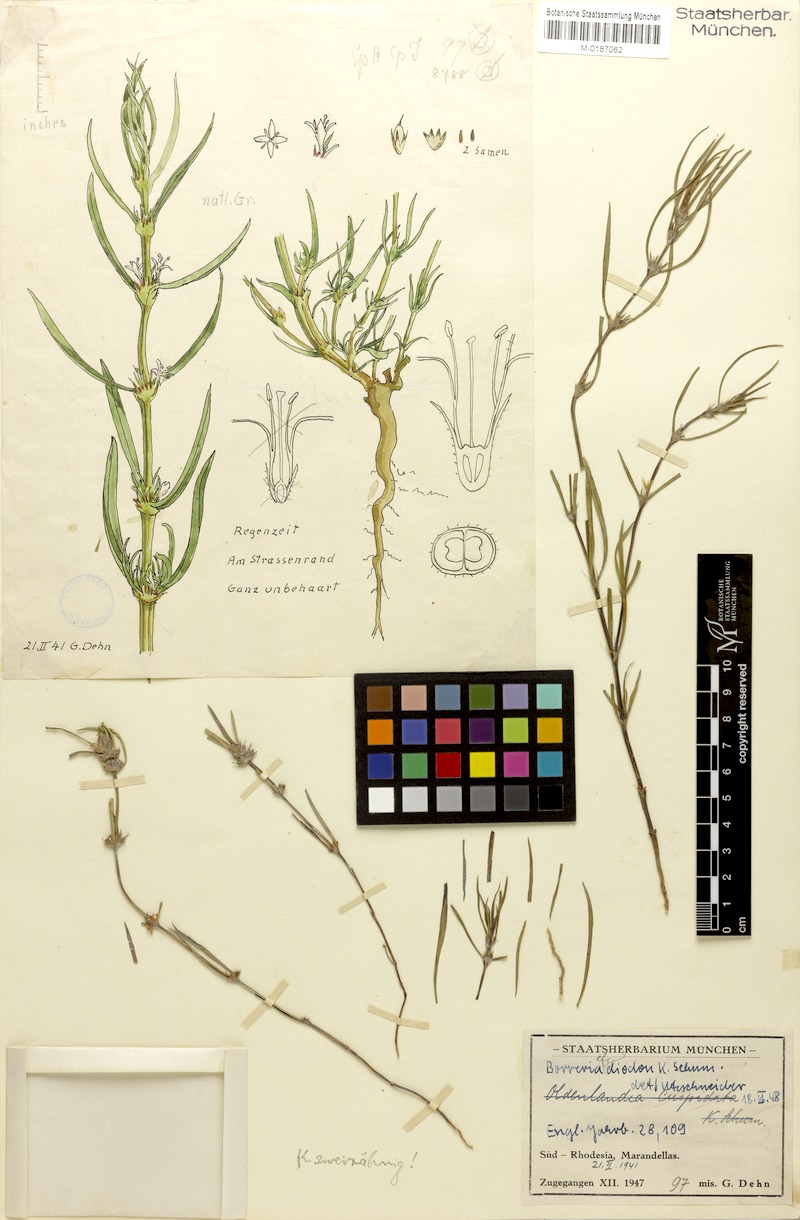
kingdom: Plantae
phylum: Tracheophyta
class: Magnoliopsida
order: Gentianales
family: Rubiaceae
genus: Spermacoce
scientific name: Spermacoce kirkii
